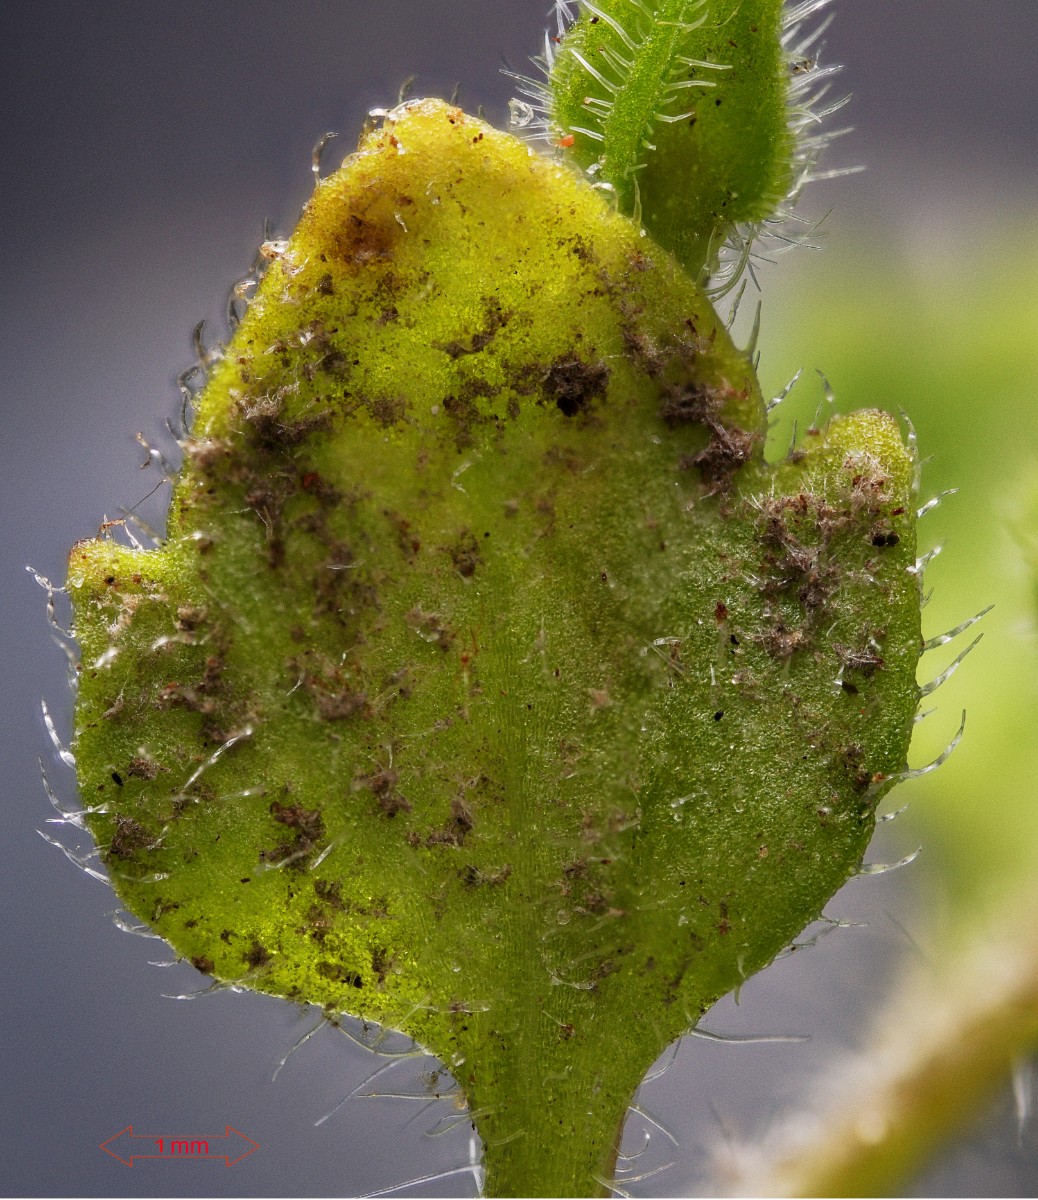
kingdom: Chromista
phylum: Oomycota
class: Peronosporea
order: Peronosporales
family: Peronosporaceae
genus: Peronospora
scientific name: Peronospora arvensis
